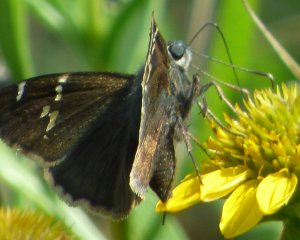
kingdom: Animalia
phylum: Arthropoda
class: Insecta
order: Lepidoptera
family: Hesperiidae
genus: Autochton
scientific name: Autochton
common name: Southern Cloudywing
